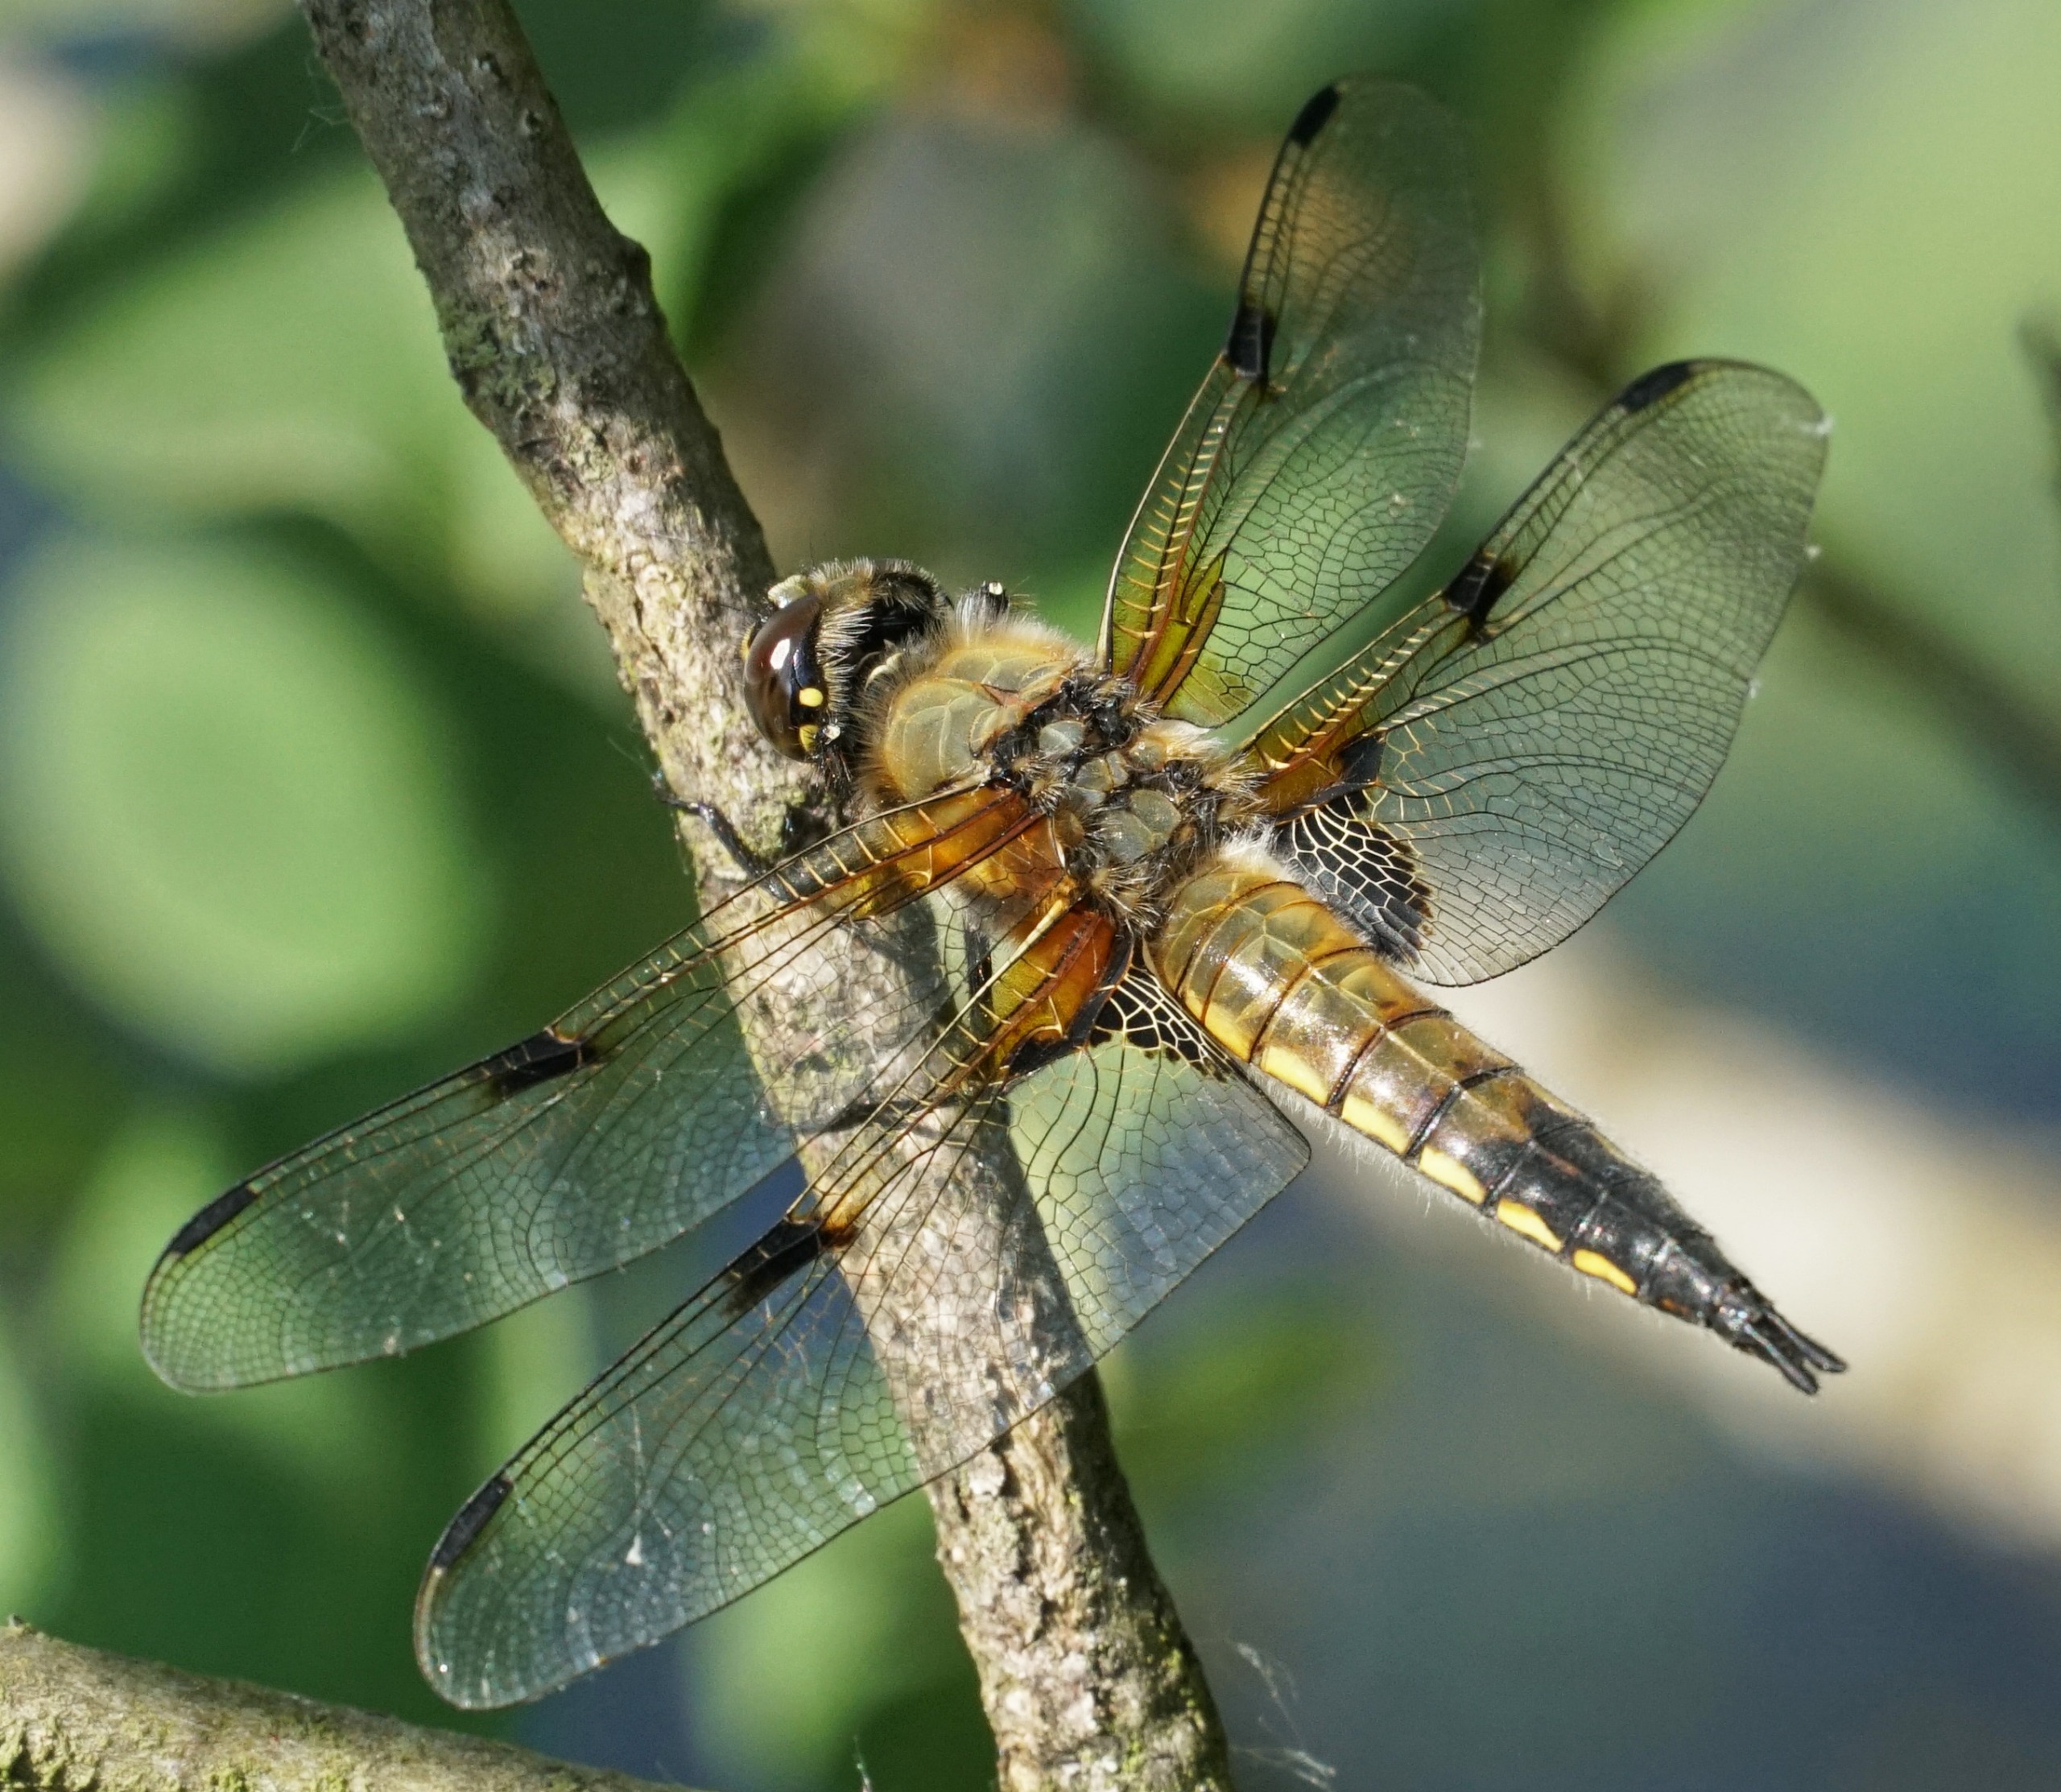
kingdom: Animalia
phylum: Arthropoda
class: Insecta
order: Odonata
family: Libellulidae
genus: Libellula
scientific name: Libellula quadrimaculata
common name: Fireplettet libel
